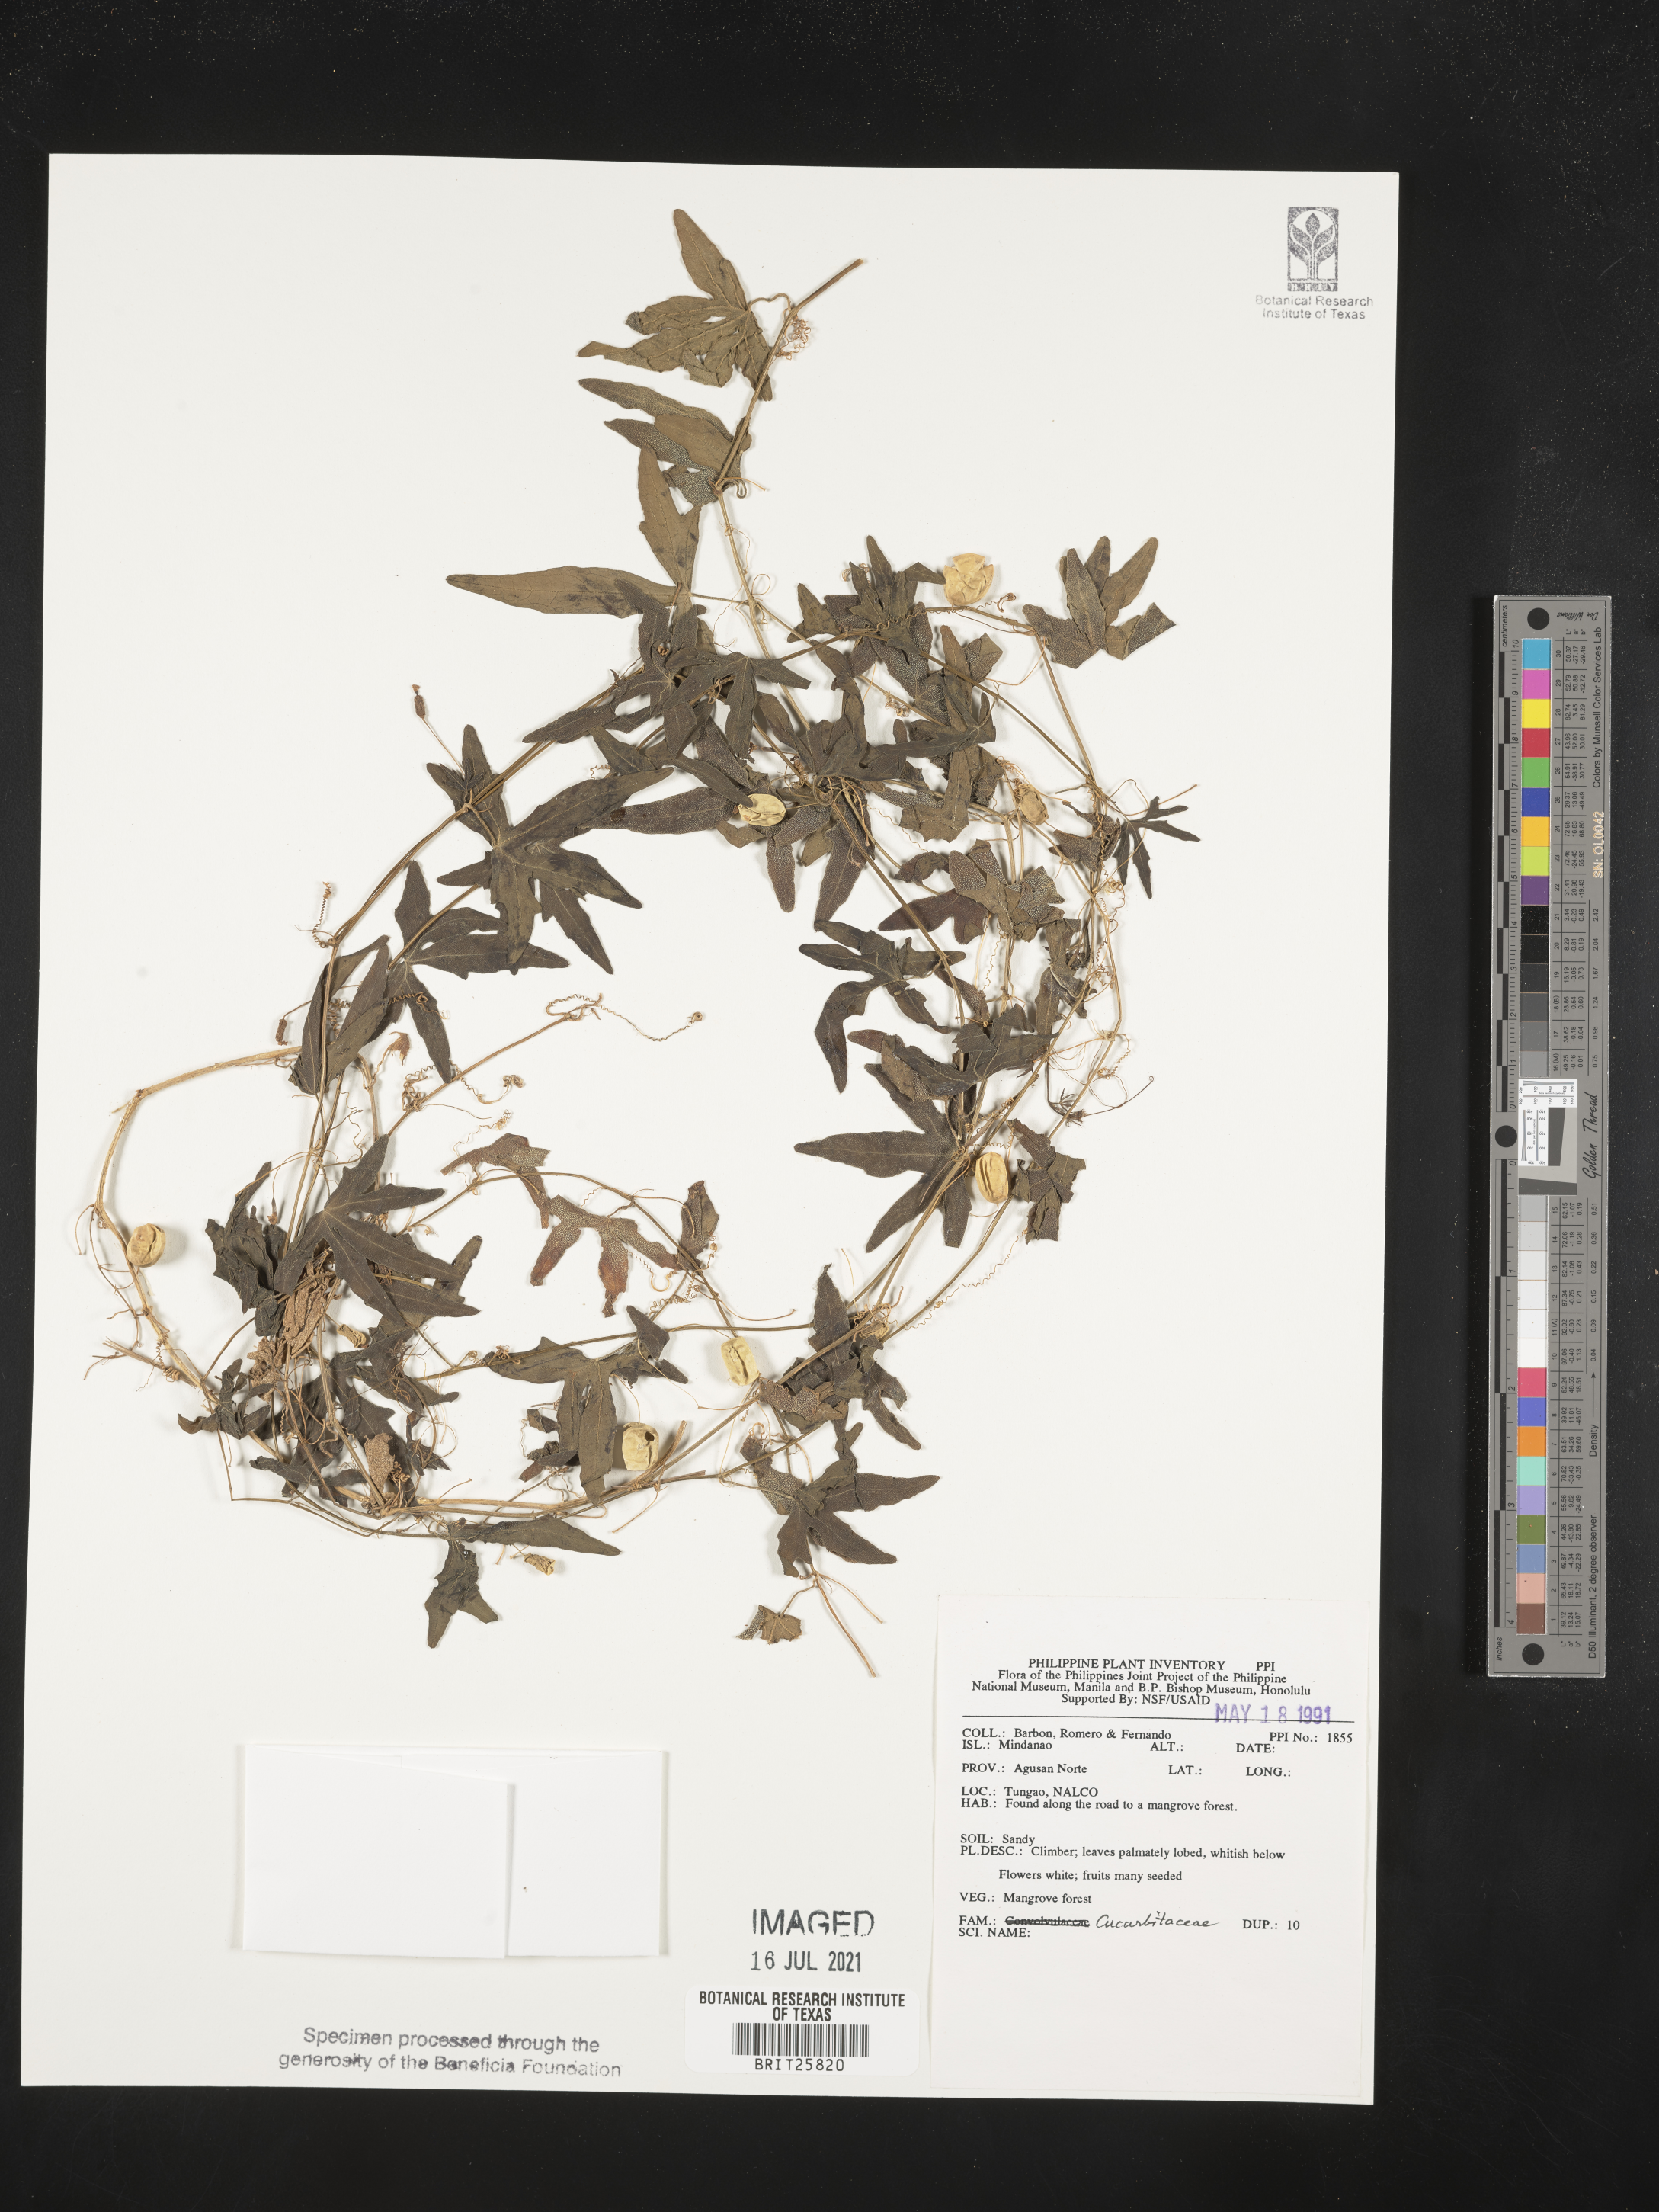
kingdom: Plantae
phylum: Tracheophyta
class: Magnoliopsida
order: Cucurbitales
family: Cucurbitaceae
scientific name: Cucurbitaceae
